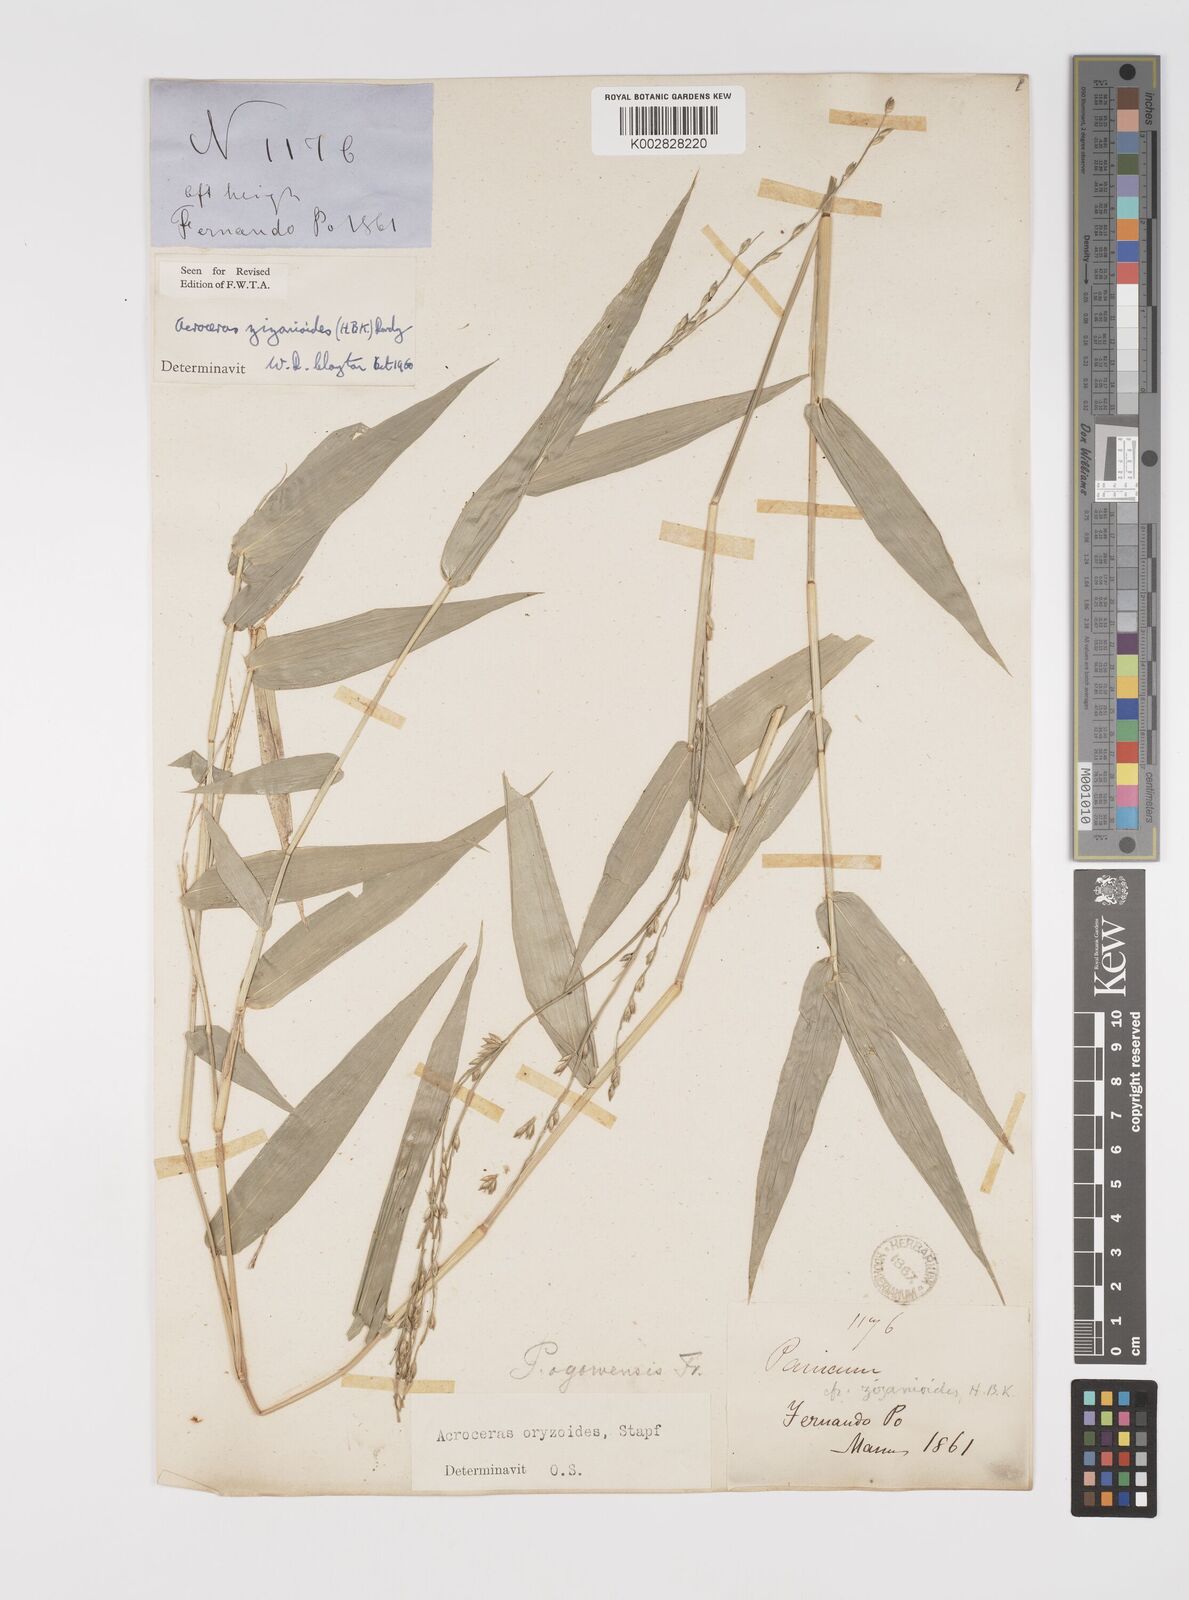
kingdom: Plantae
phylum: Tracheophyta
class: Liliopsida
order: Poales
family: Poaceae
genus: Acroceras
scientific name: Acroceras zizanioides
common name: Oat grass
